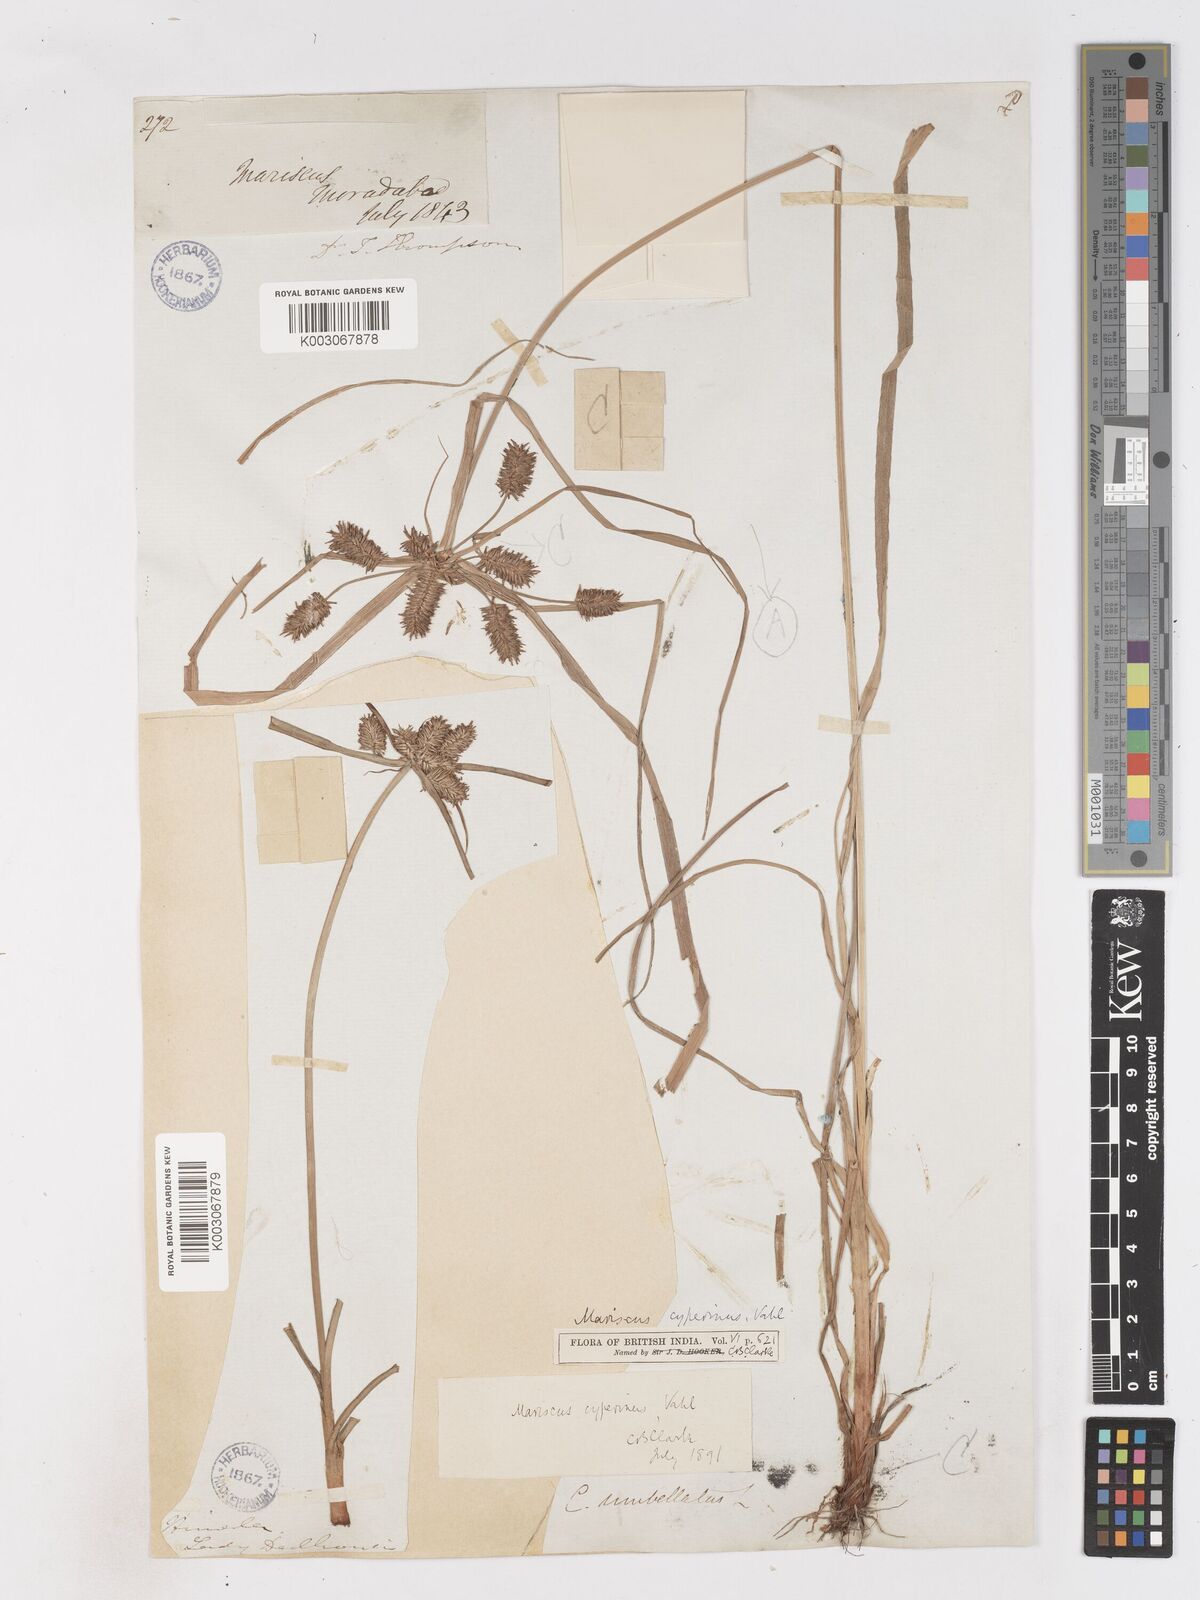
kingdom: Plantae
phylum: Tracheophyta
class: Liliopsida
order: Poales
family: Cyperaceae
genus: Cyperus
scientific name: Cyperus
